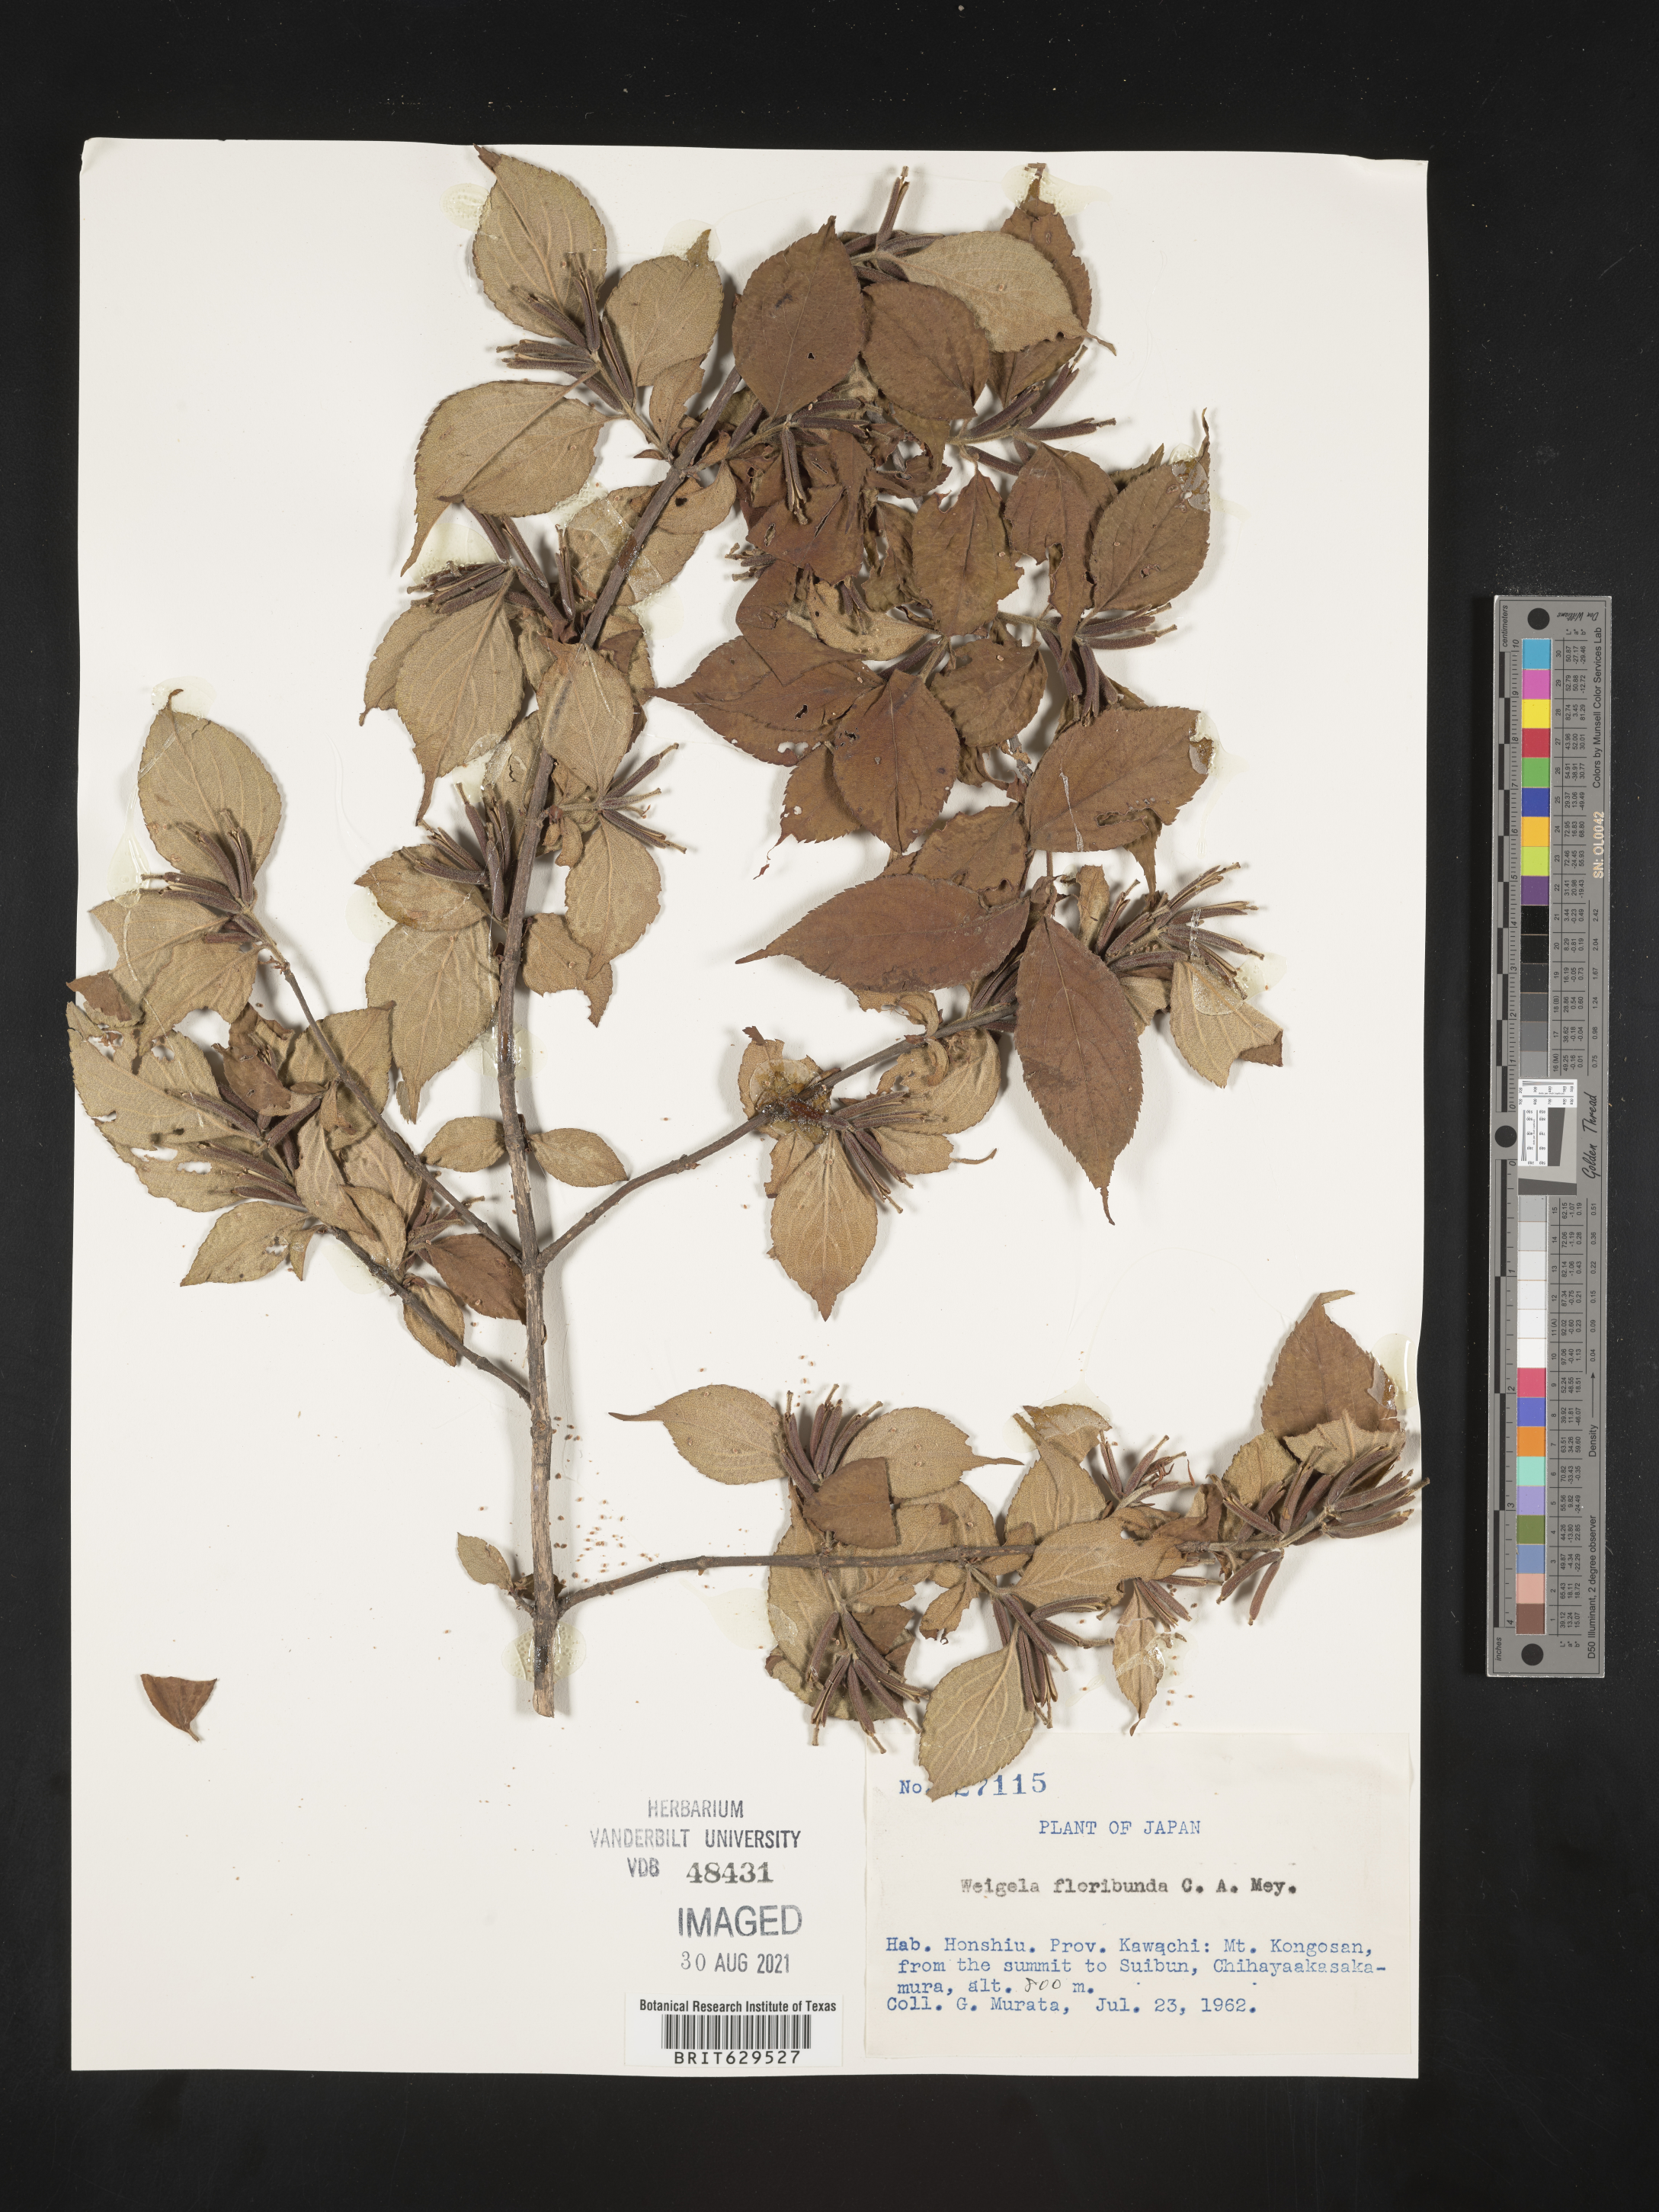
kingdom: Plantae
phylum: Tracheophyta
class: Magnoliopsida
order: Dipsacales
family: Caprifoliaceae
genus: Weigelia
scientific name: Weigelia floribunda
